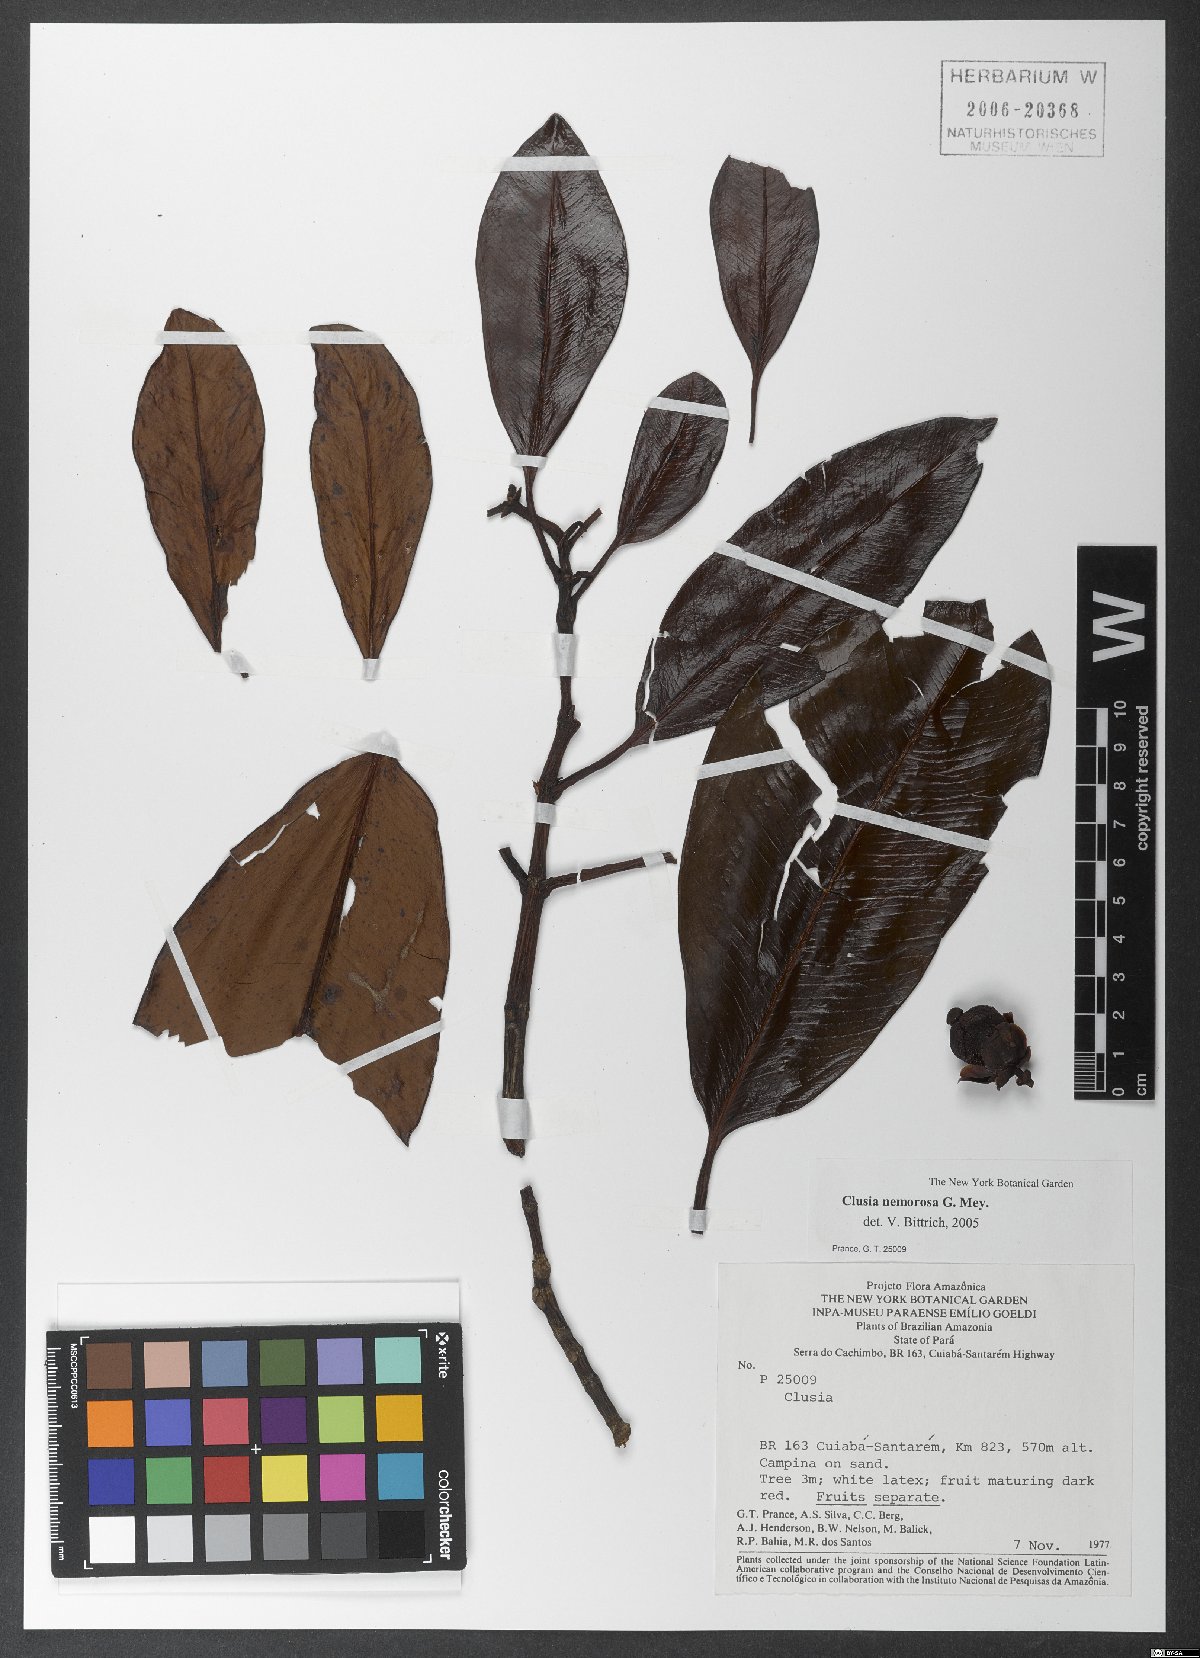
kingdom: Plantae
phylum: Tracheophyta
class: Magnoliopsida
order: Malpighiales
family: Clusiaceae
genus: Clusia
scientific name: Clusia nemorosa
